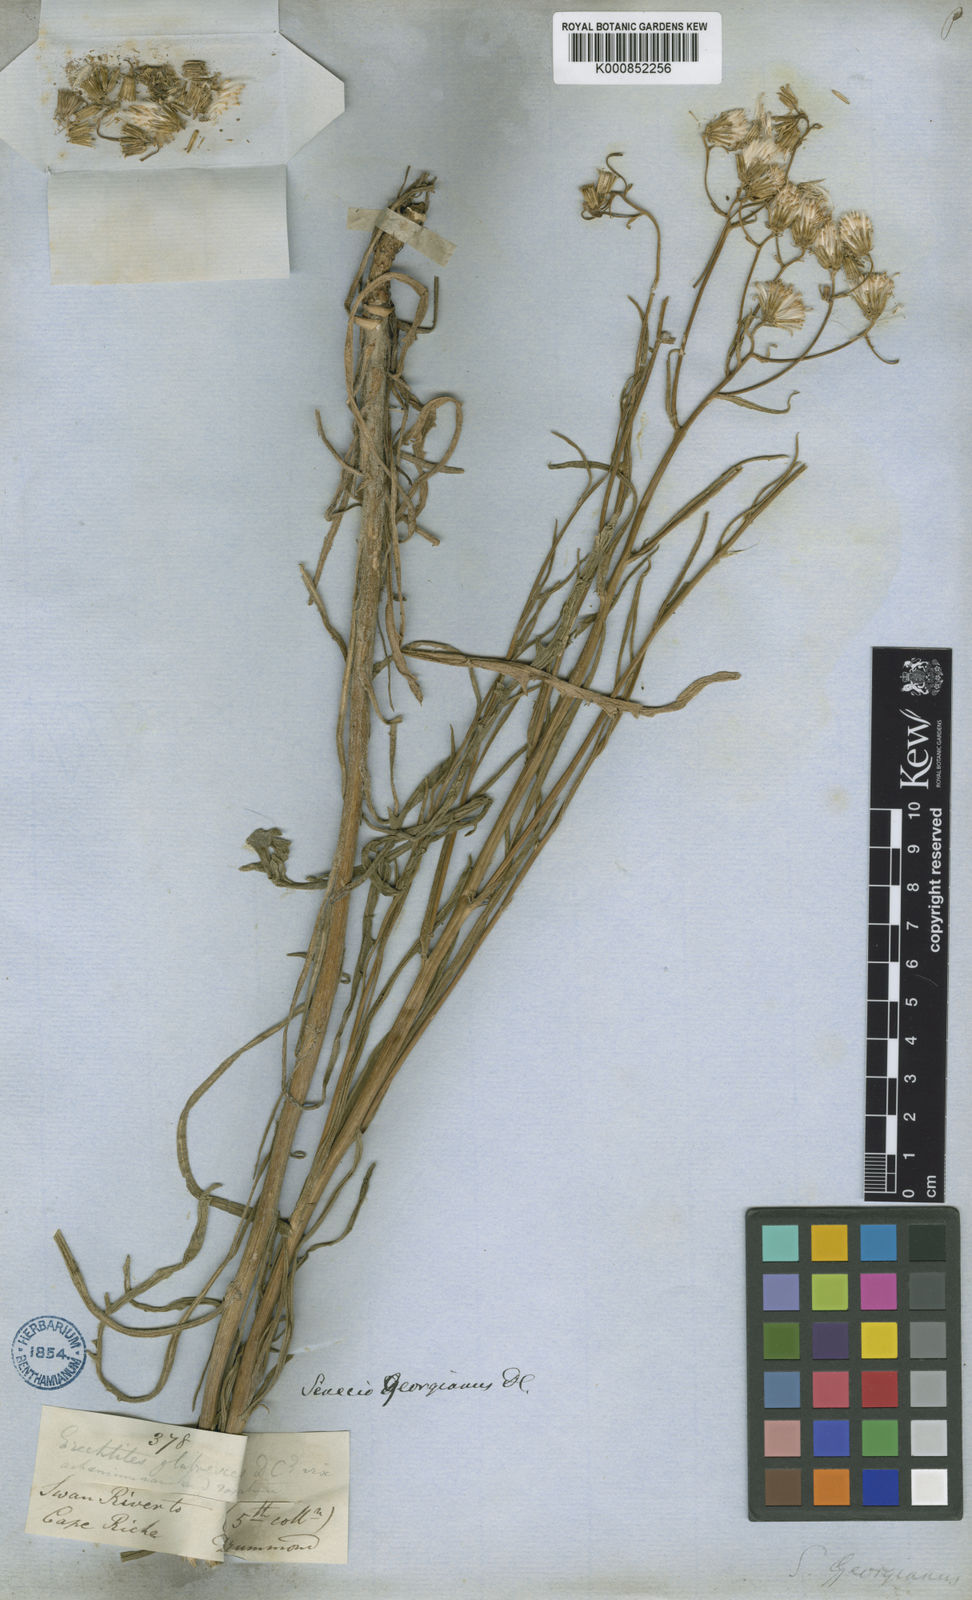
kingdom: Plantae
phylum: Tracheophyta
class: Magnoliopsida
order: Asterales
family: Asteraceae
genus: Senecio
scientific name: Senecio georgianus
